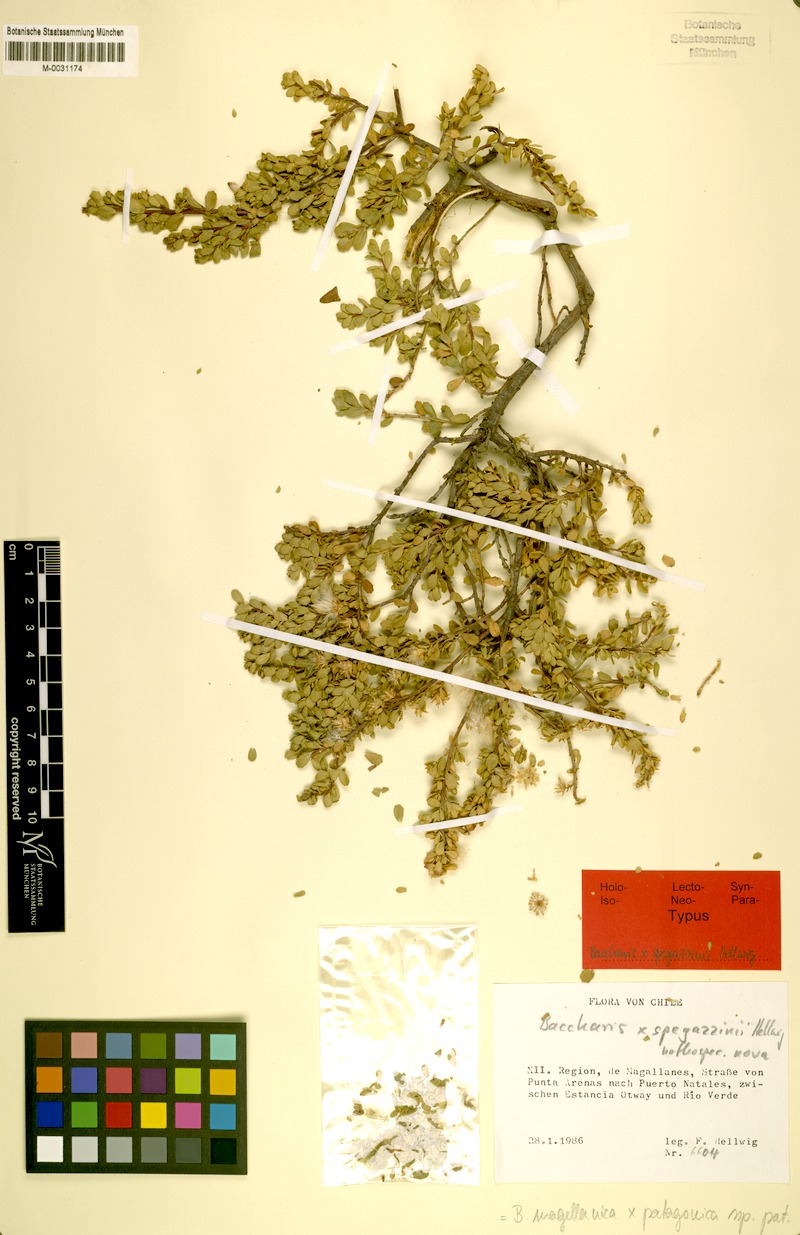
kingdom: Plantae
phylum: Tracheophyta
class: Magnoliopsida
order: Asterales
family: Asteraceae
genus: Baccharis
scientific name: Baccharis spegazzinii
